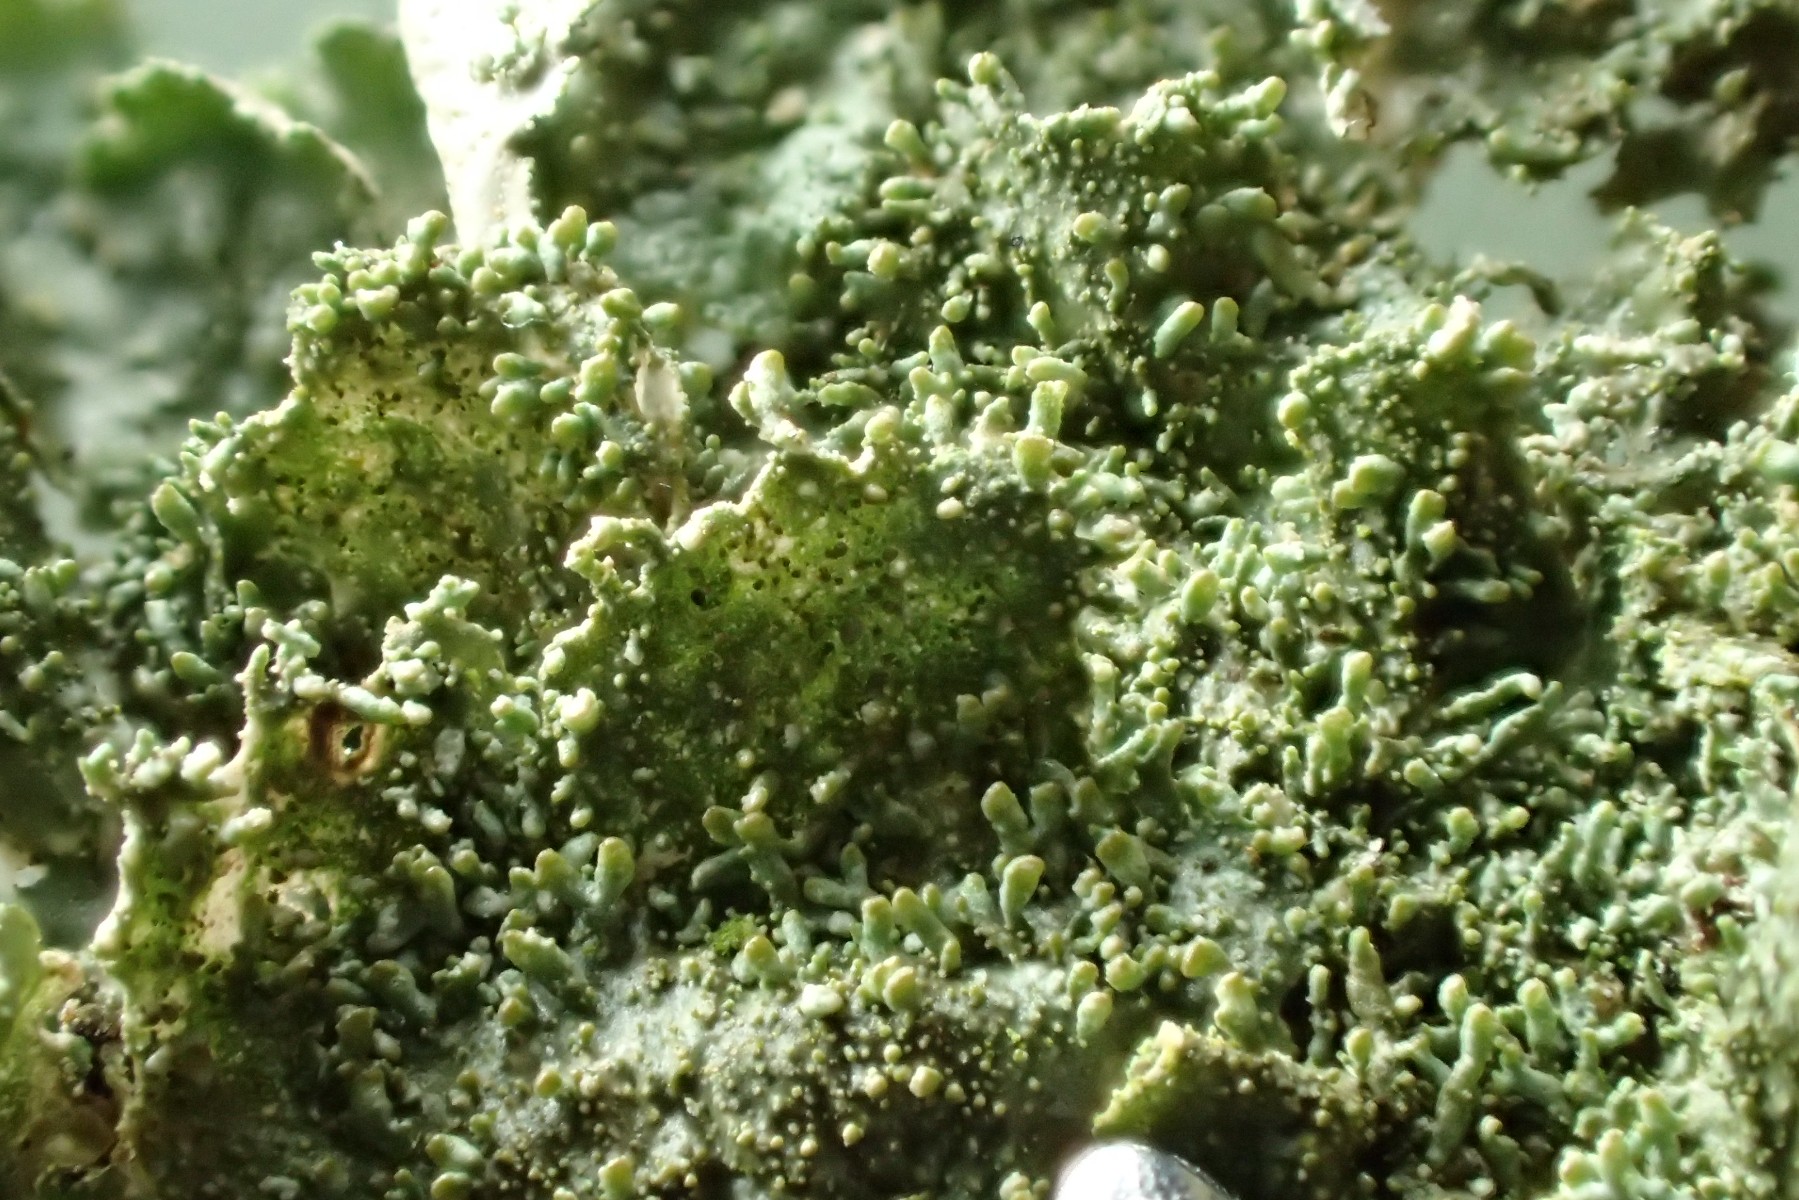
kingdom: Fungi
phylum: Ascomycota
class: Lecanoromycetes
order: Lecanorales
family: Parmeliaceae
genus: Melanohalea
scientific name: Melanohalea exasperatula
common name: kølle-skållav
